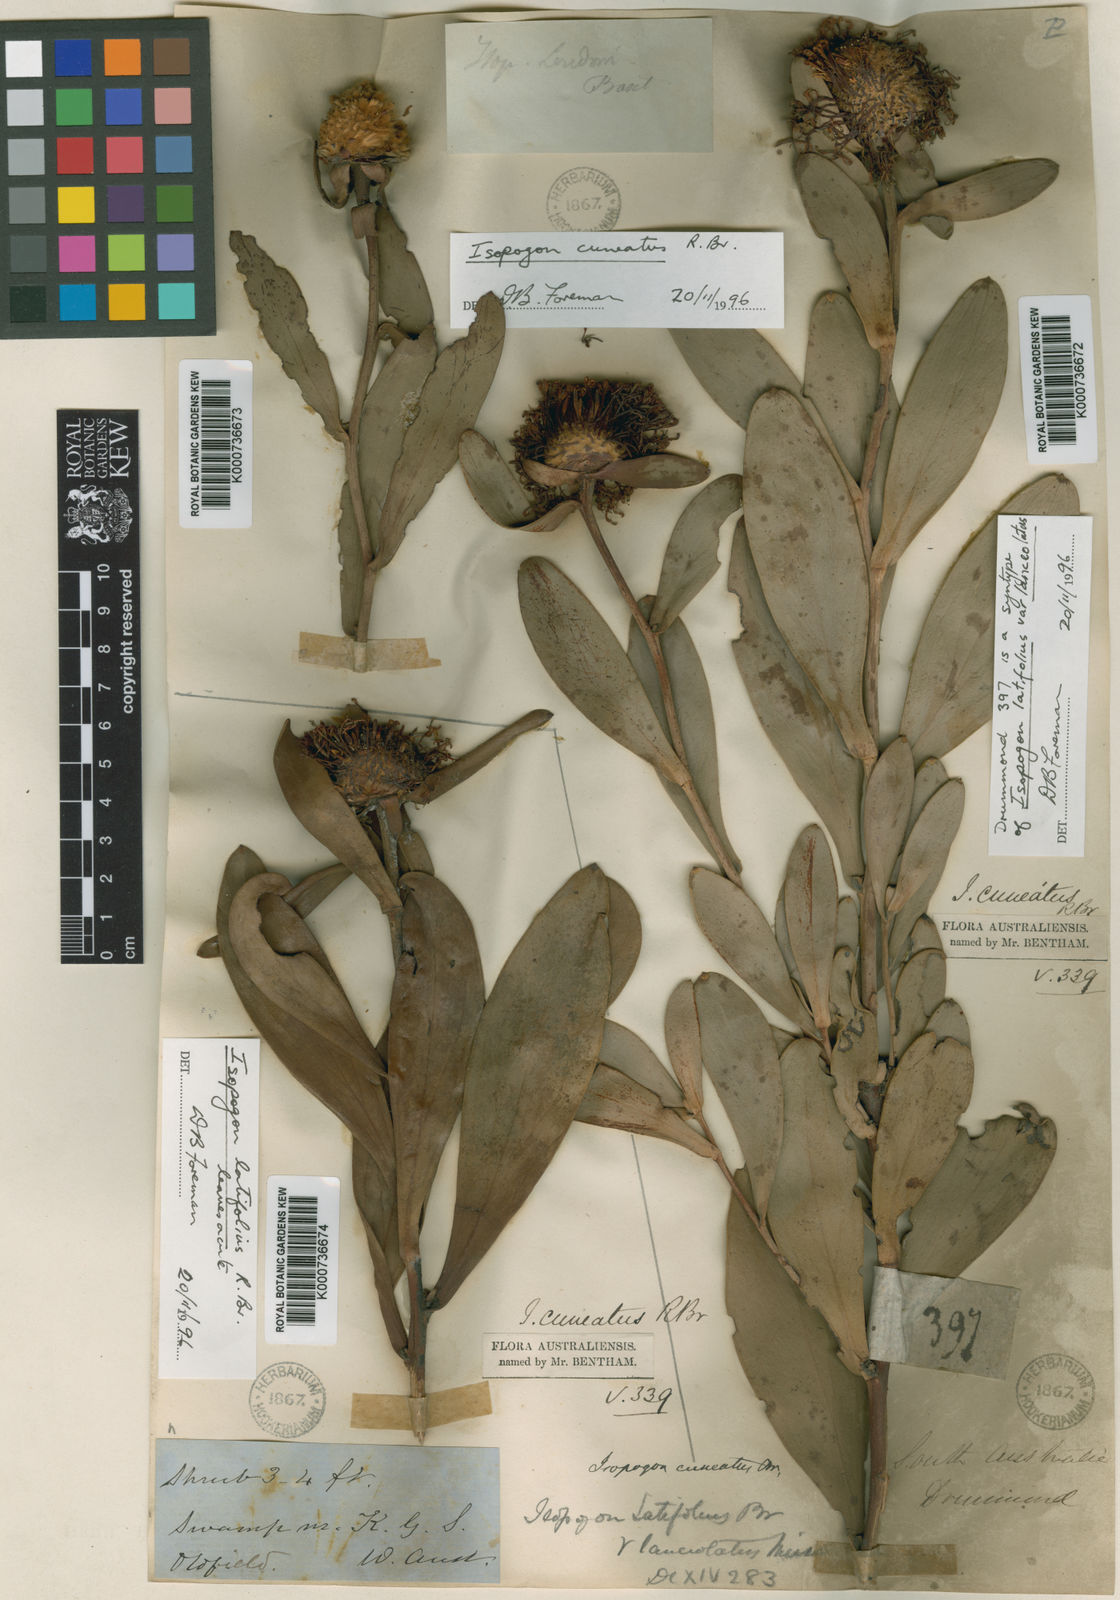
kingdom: Plantae
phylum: Tracheophyta
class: Magnoliopsida
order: Proteales
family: Proteaceae
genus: Isopogon
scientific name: Isopogon latifolius
